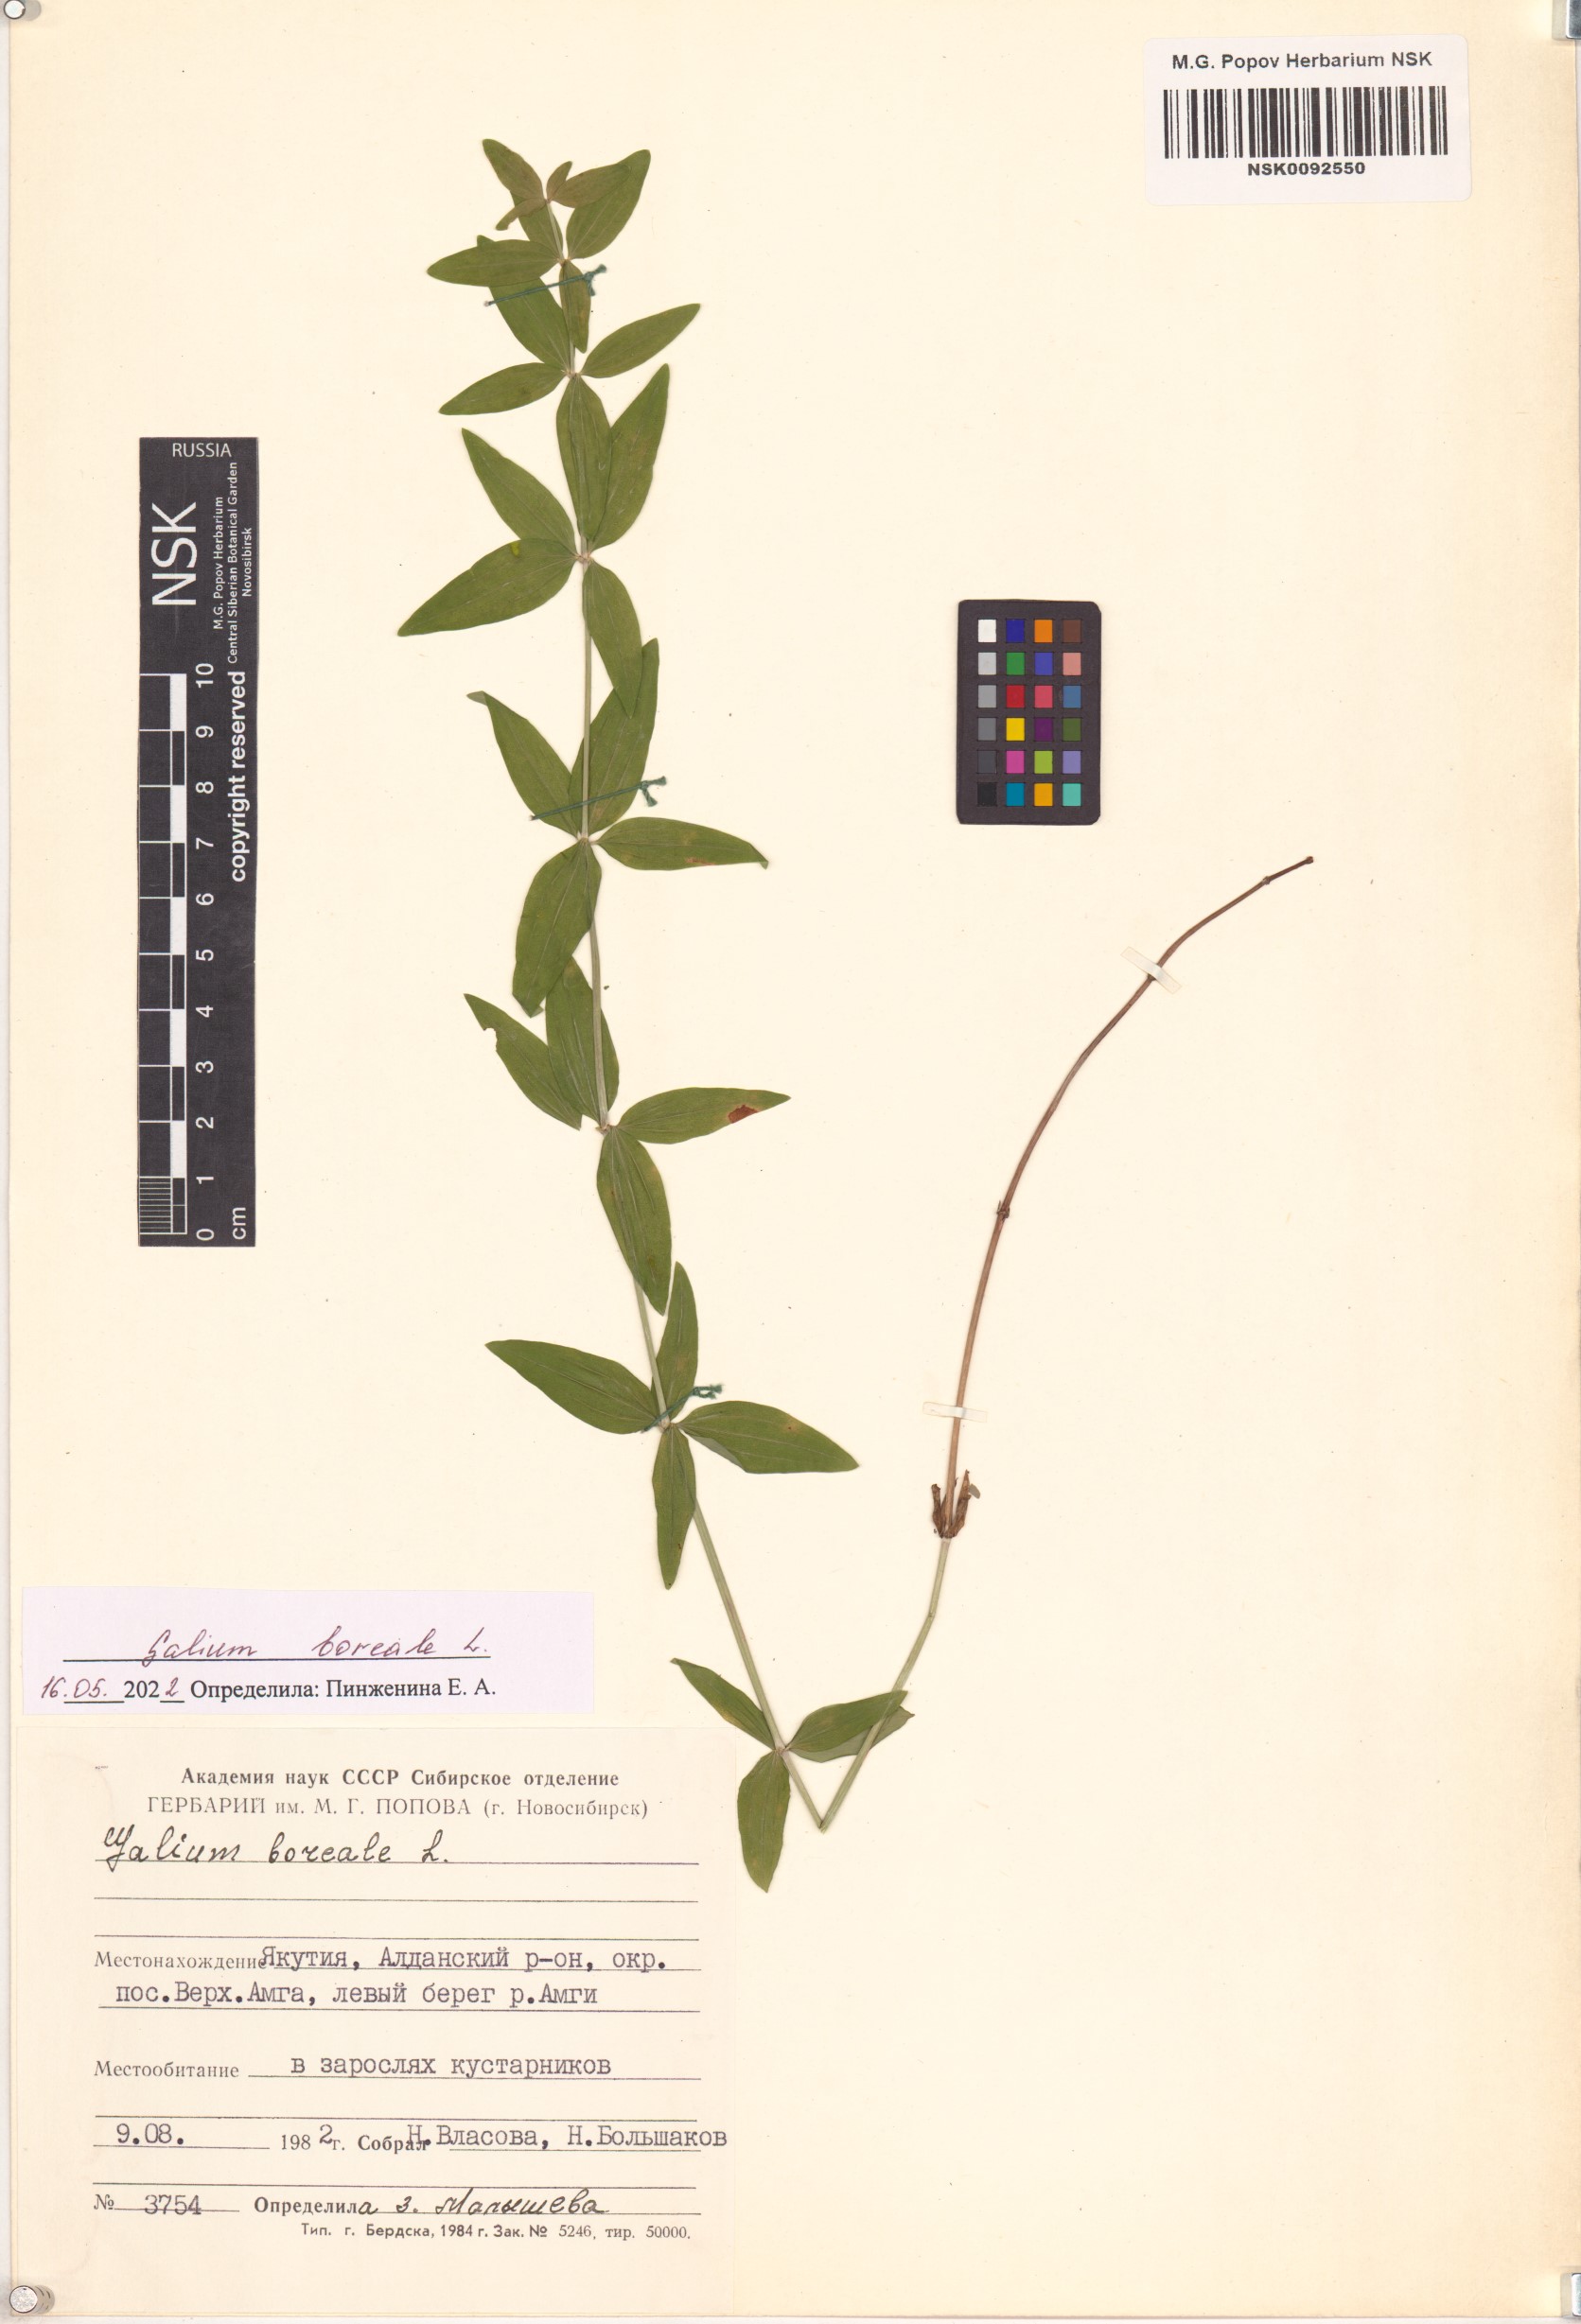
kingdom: Plantae
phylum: Tracheophyta
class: Magnoliopsida
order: Gentianales
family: Rubiaceae
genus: Galium
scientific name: Galium boreale
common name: Northern bedstraw
